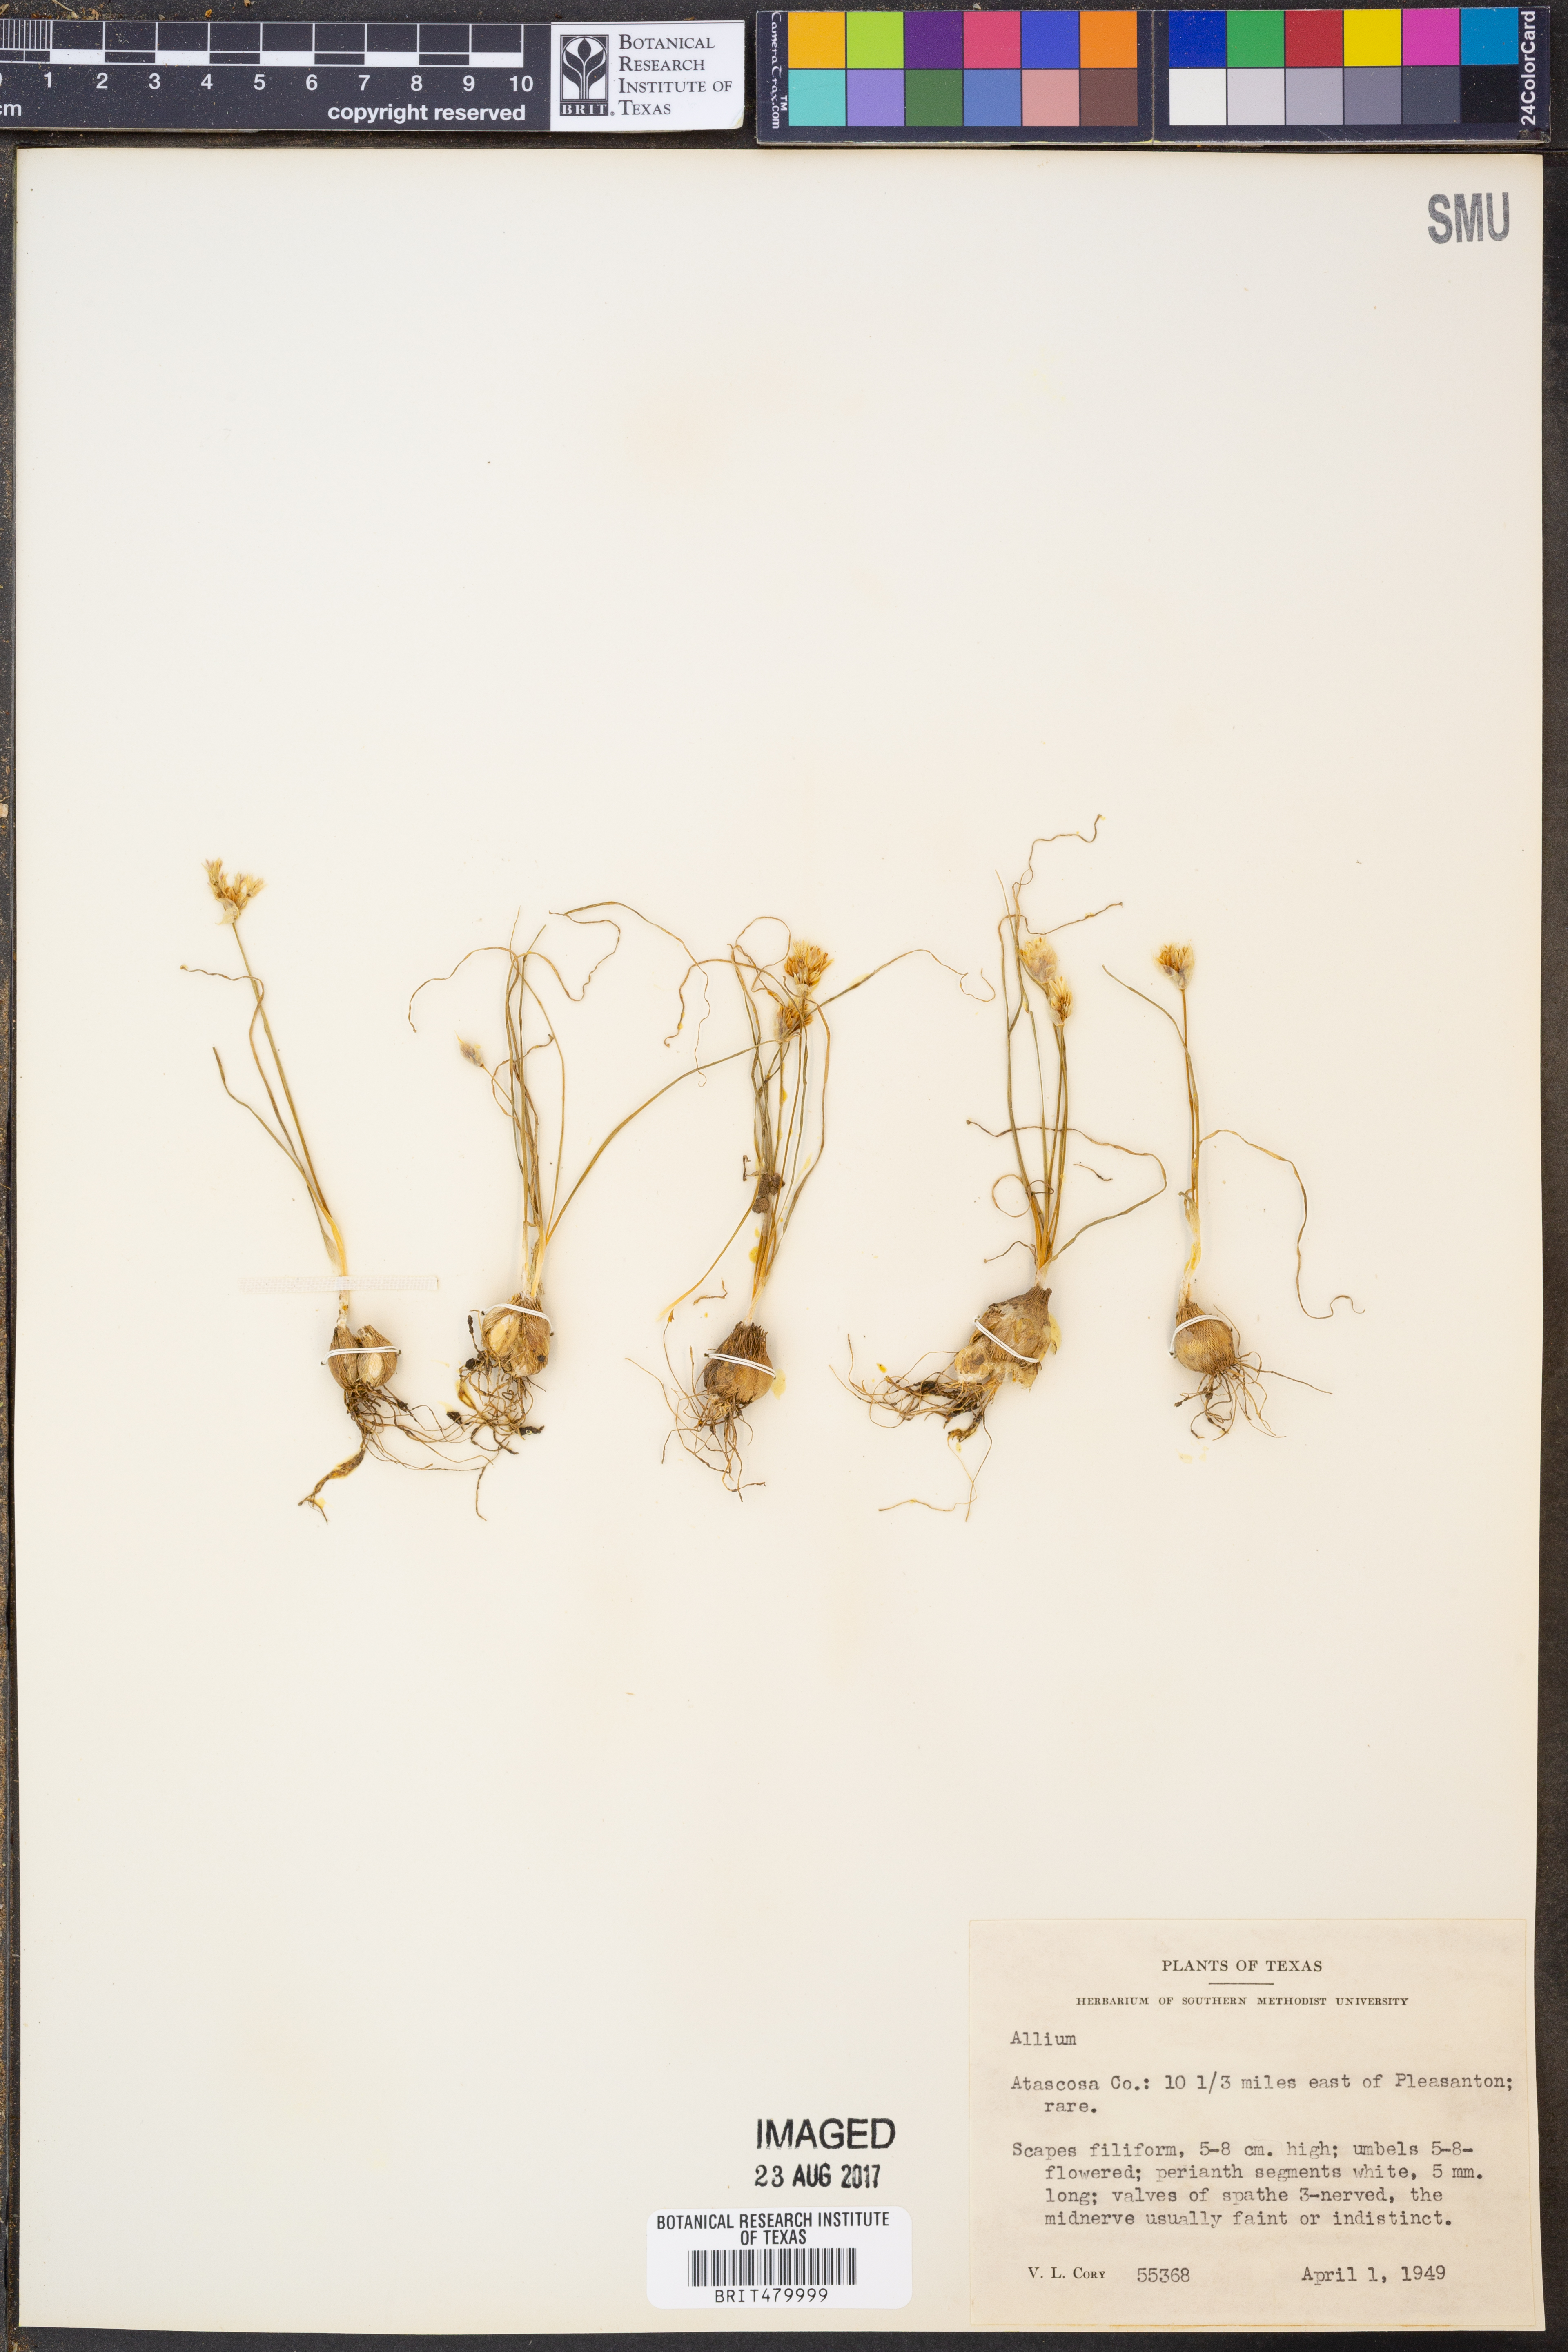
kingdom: Plantae
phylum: Tracheophyta
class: Liliopsida
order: Asparagales
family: Amaryllidaceae
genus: Allium
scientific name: Allium
